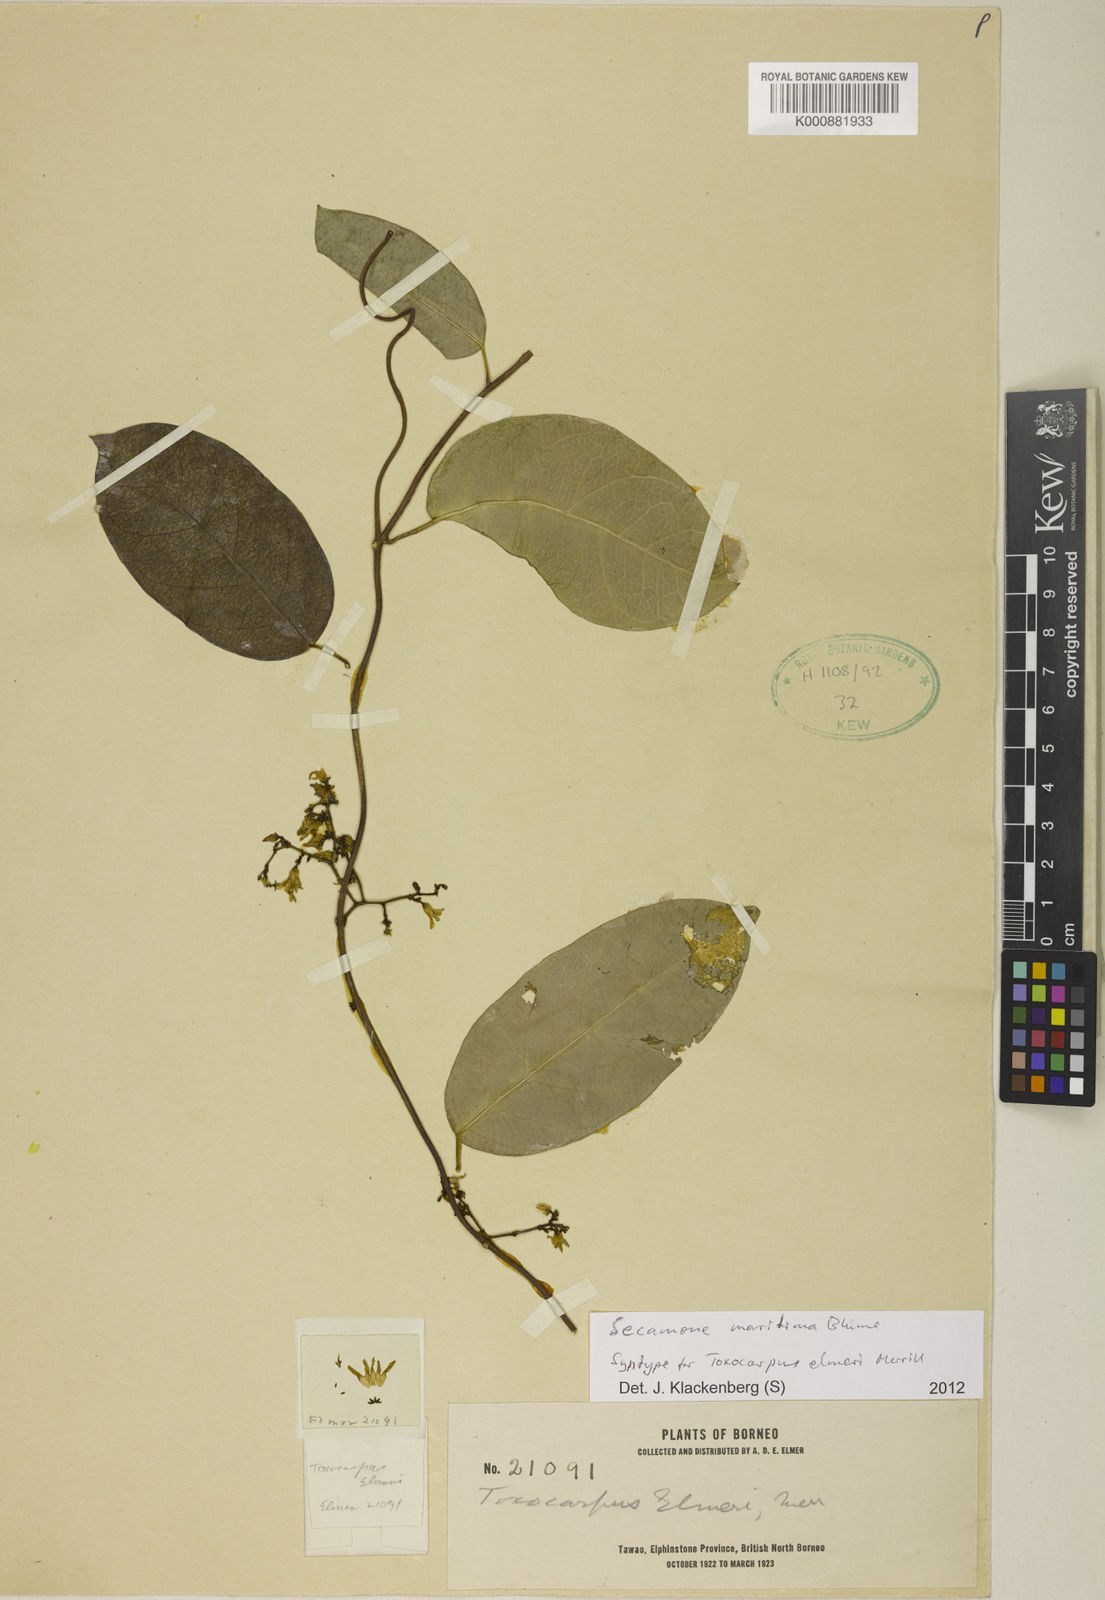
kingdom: Plantae
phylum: Tracheophyta
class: Magnoliopsida
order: Gentianales
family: Apocynaceae
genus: Finlaysonia
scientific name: Finlaysonia obovata
